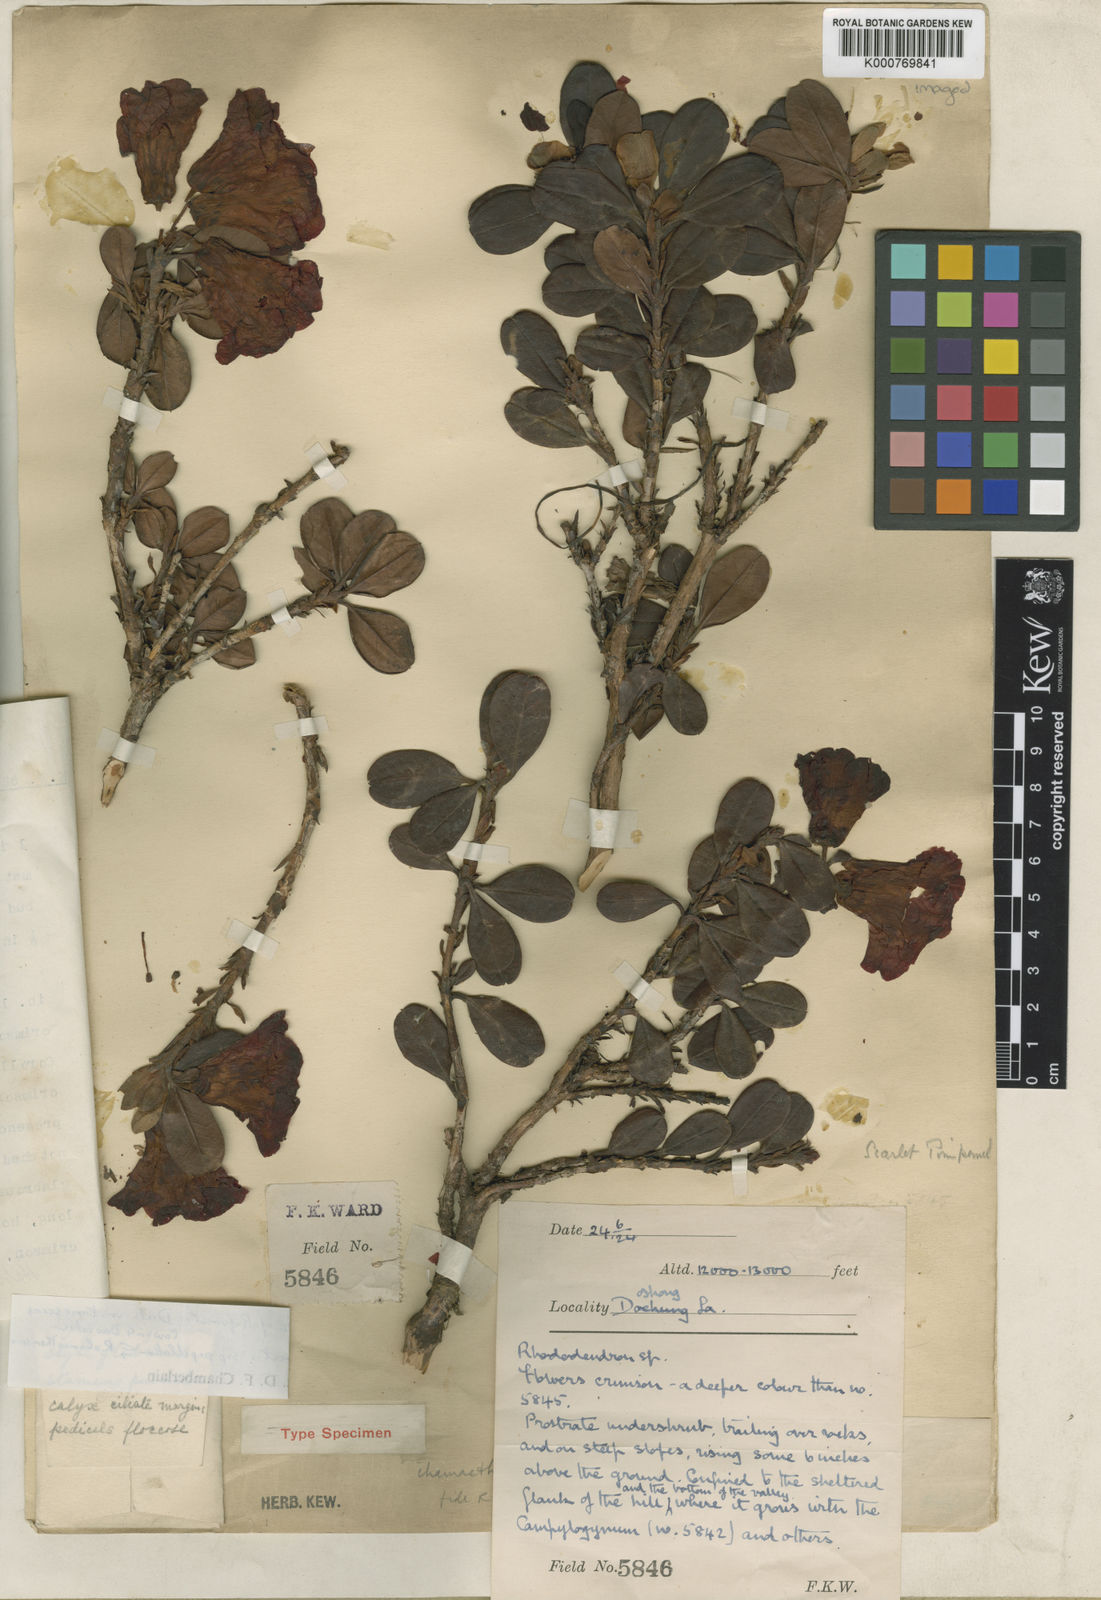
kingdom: Plantae
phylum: Tracheophyta
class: Magnoliopsida
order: Ericales
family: Ericaceae
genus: Rhododendron
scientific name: Rhododendron forrestii
